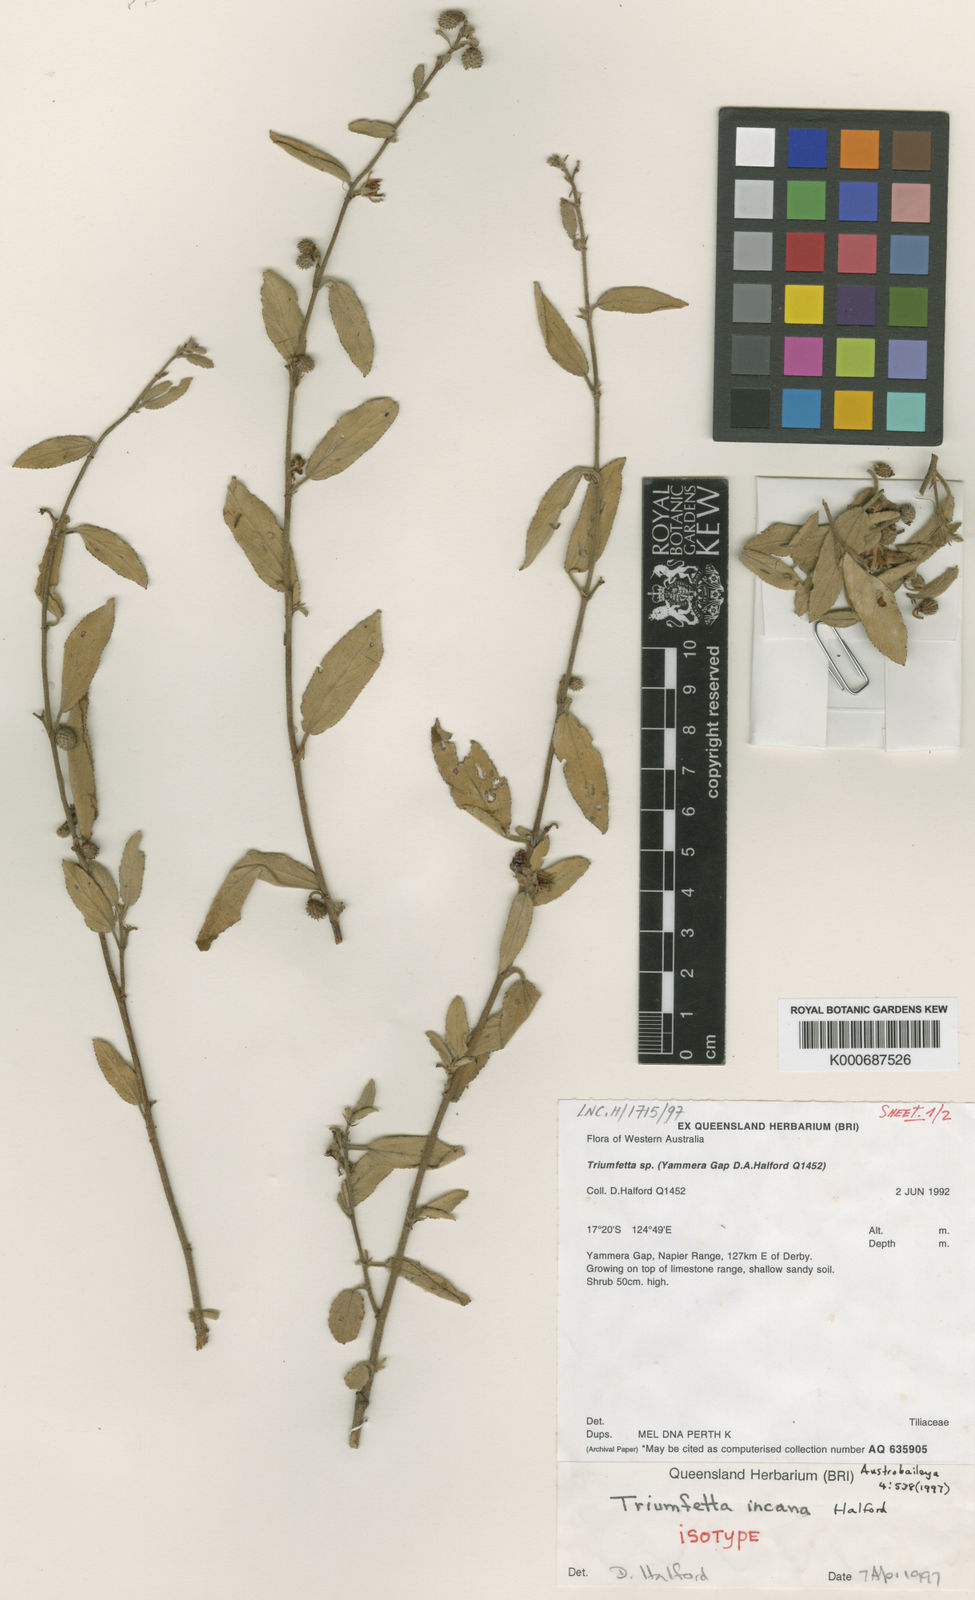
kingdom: Plantae
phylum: Tracheophyta
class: Magnoliopsida
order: Malvales
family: Malvaceae
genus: Triumfetta
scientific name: Triumfetta incana
